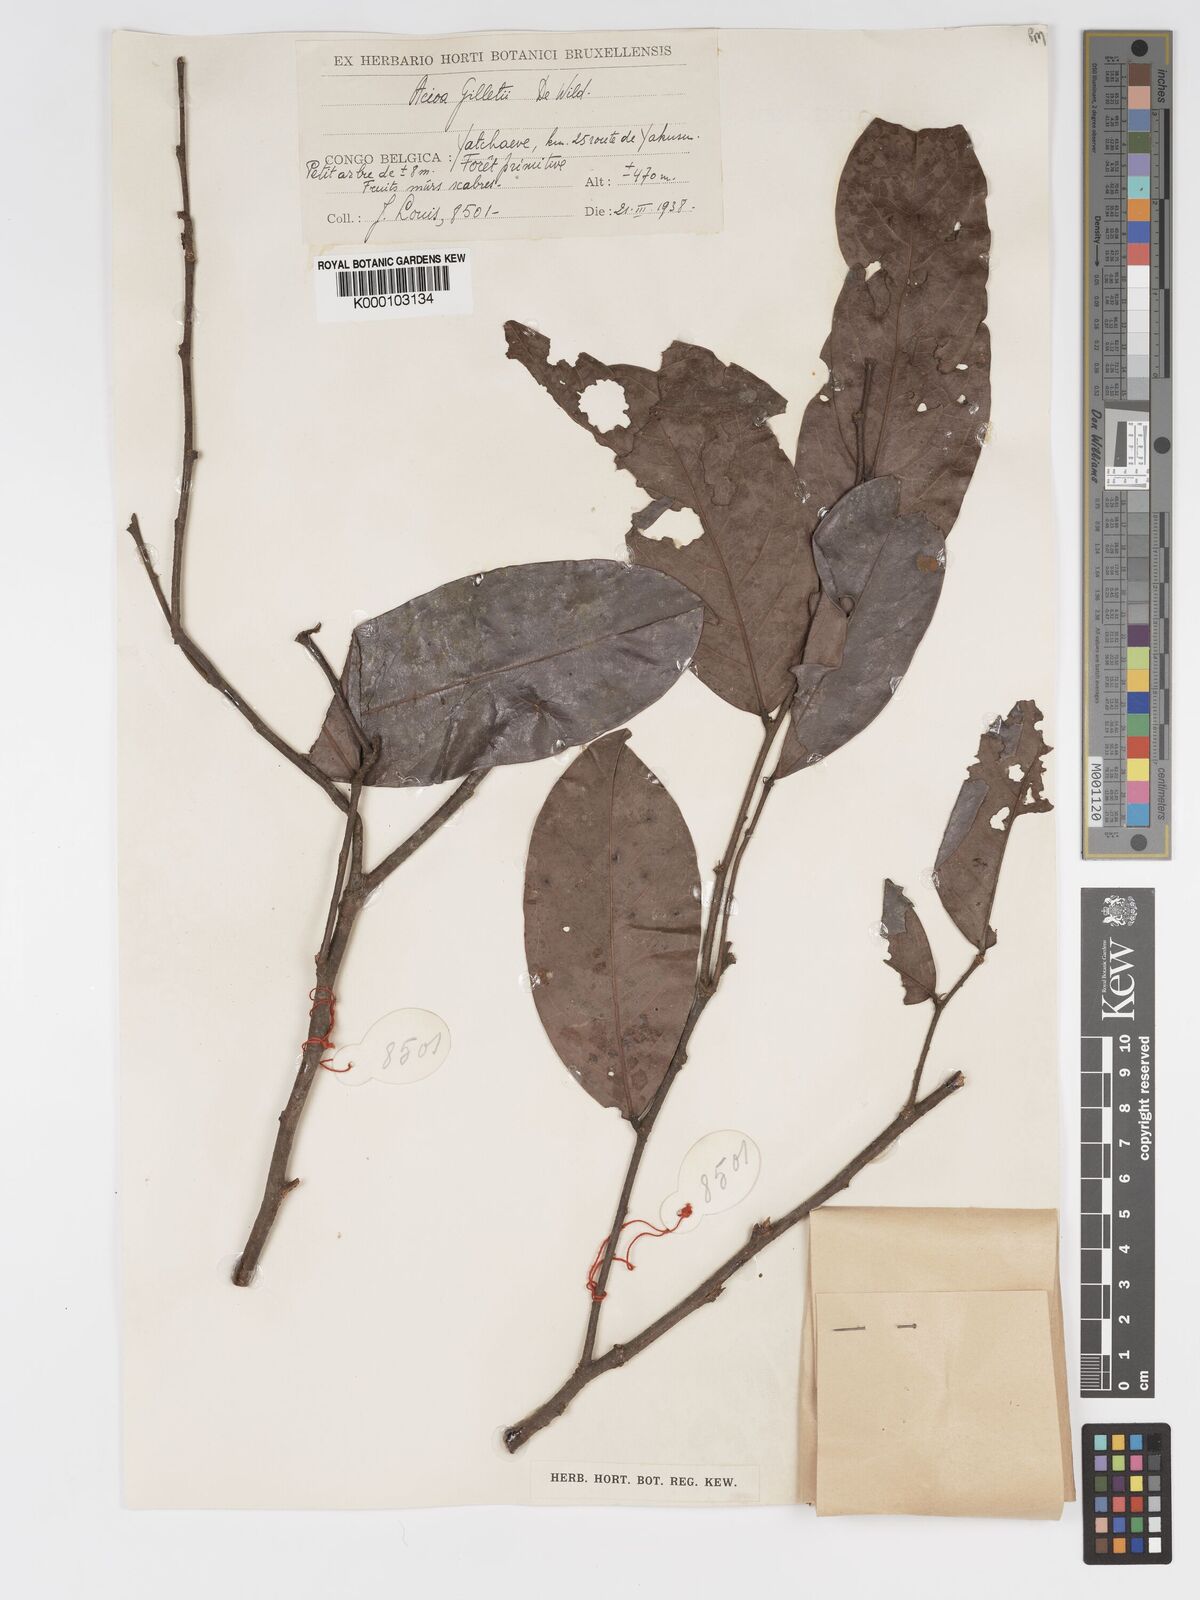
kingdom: Plantae
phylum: Tracheophyta
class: Magnoliopsida
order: Malpighiales
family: Chrysobalanaceae
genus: Dactyladenia
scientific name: Dactyladenia gilletii
